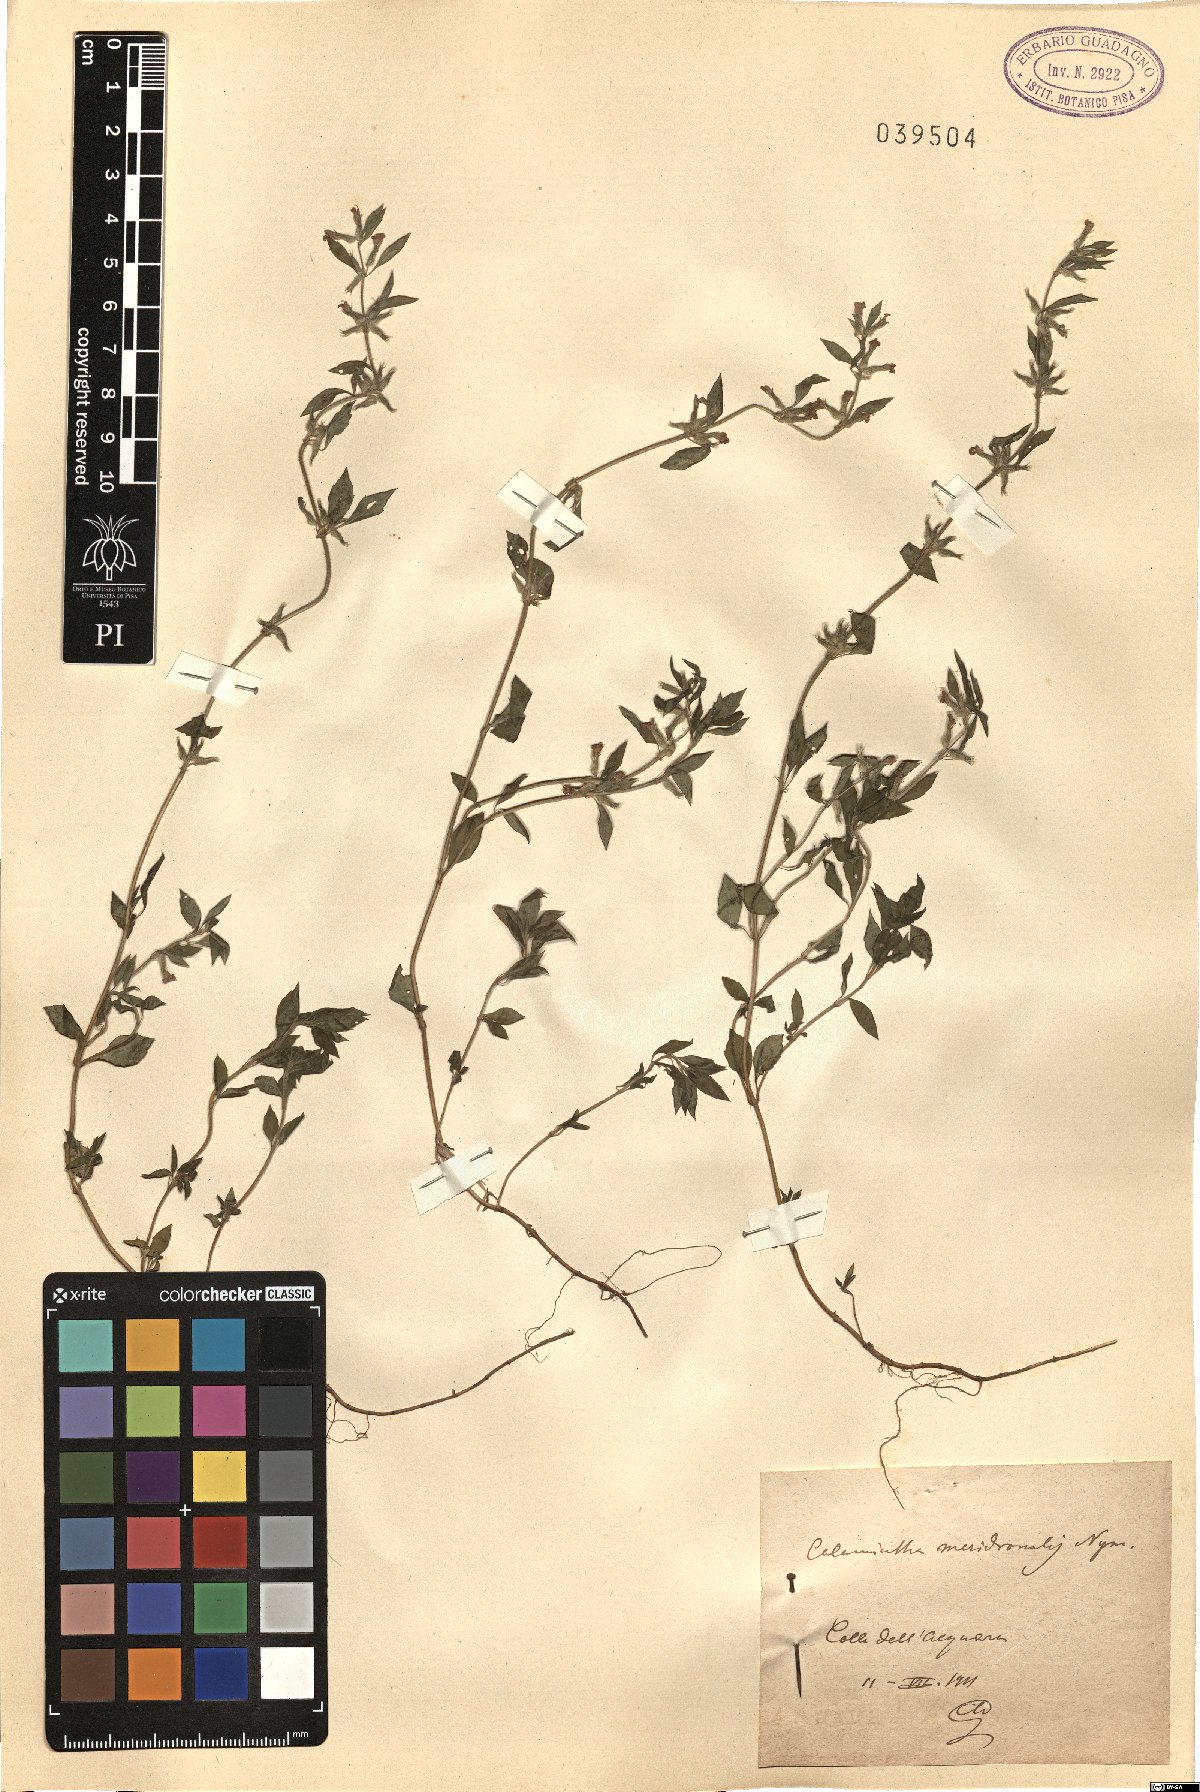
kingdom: Plantae
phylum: Tracheophyta
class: Magnoliopsida
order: Lamiales
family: Lamiaceae
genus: Clinopodium
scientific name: Clinopodium Calamintha meridionalis
